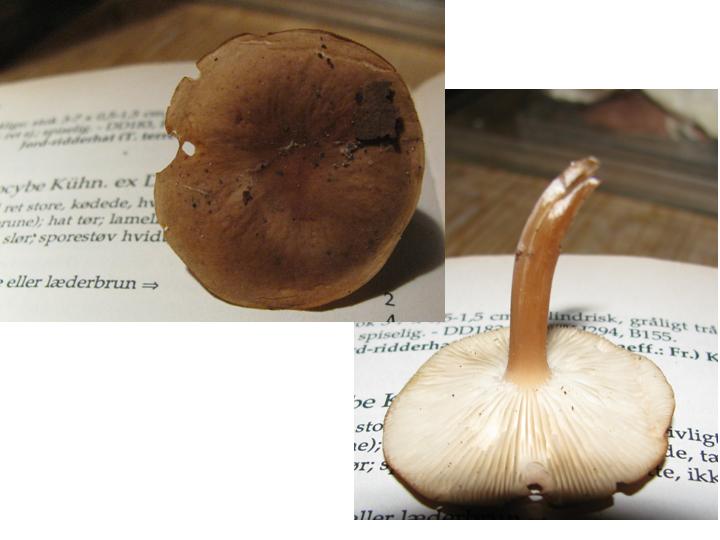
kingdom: Fungi
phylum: Basidiomycota
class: Agaricomycetes
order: Agaricales
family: Lyophyllaceae
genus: Calocybe
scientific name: Calocybe obscurissima
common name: mørk fagerhat
